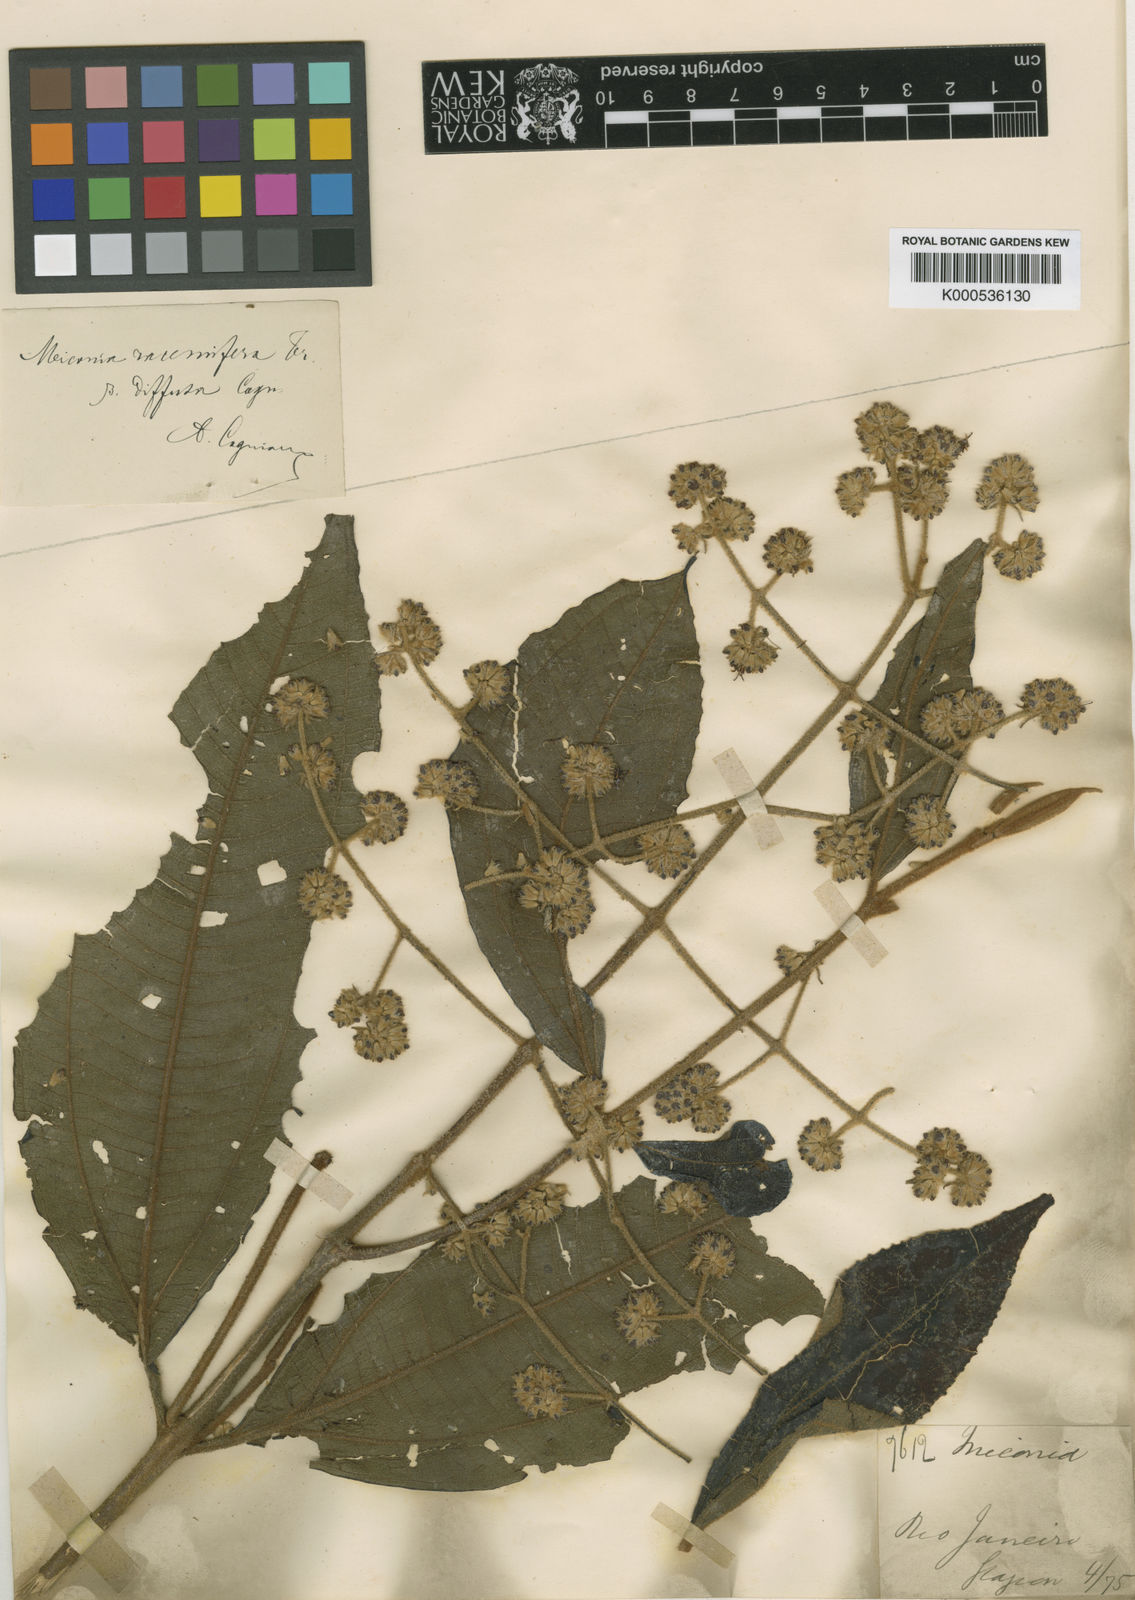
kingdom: Plantae
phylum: Tracheophyta
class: Magnoliopsida
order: Myrtales
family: Melastomataceae
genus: Miconia
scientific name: Miconia racemifera
